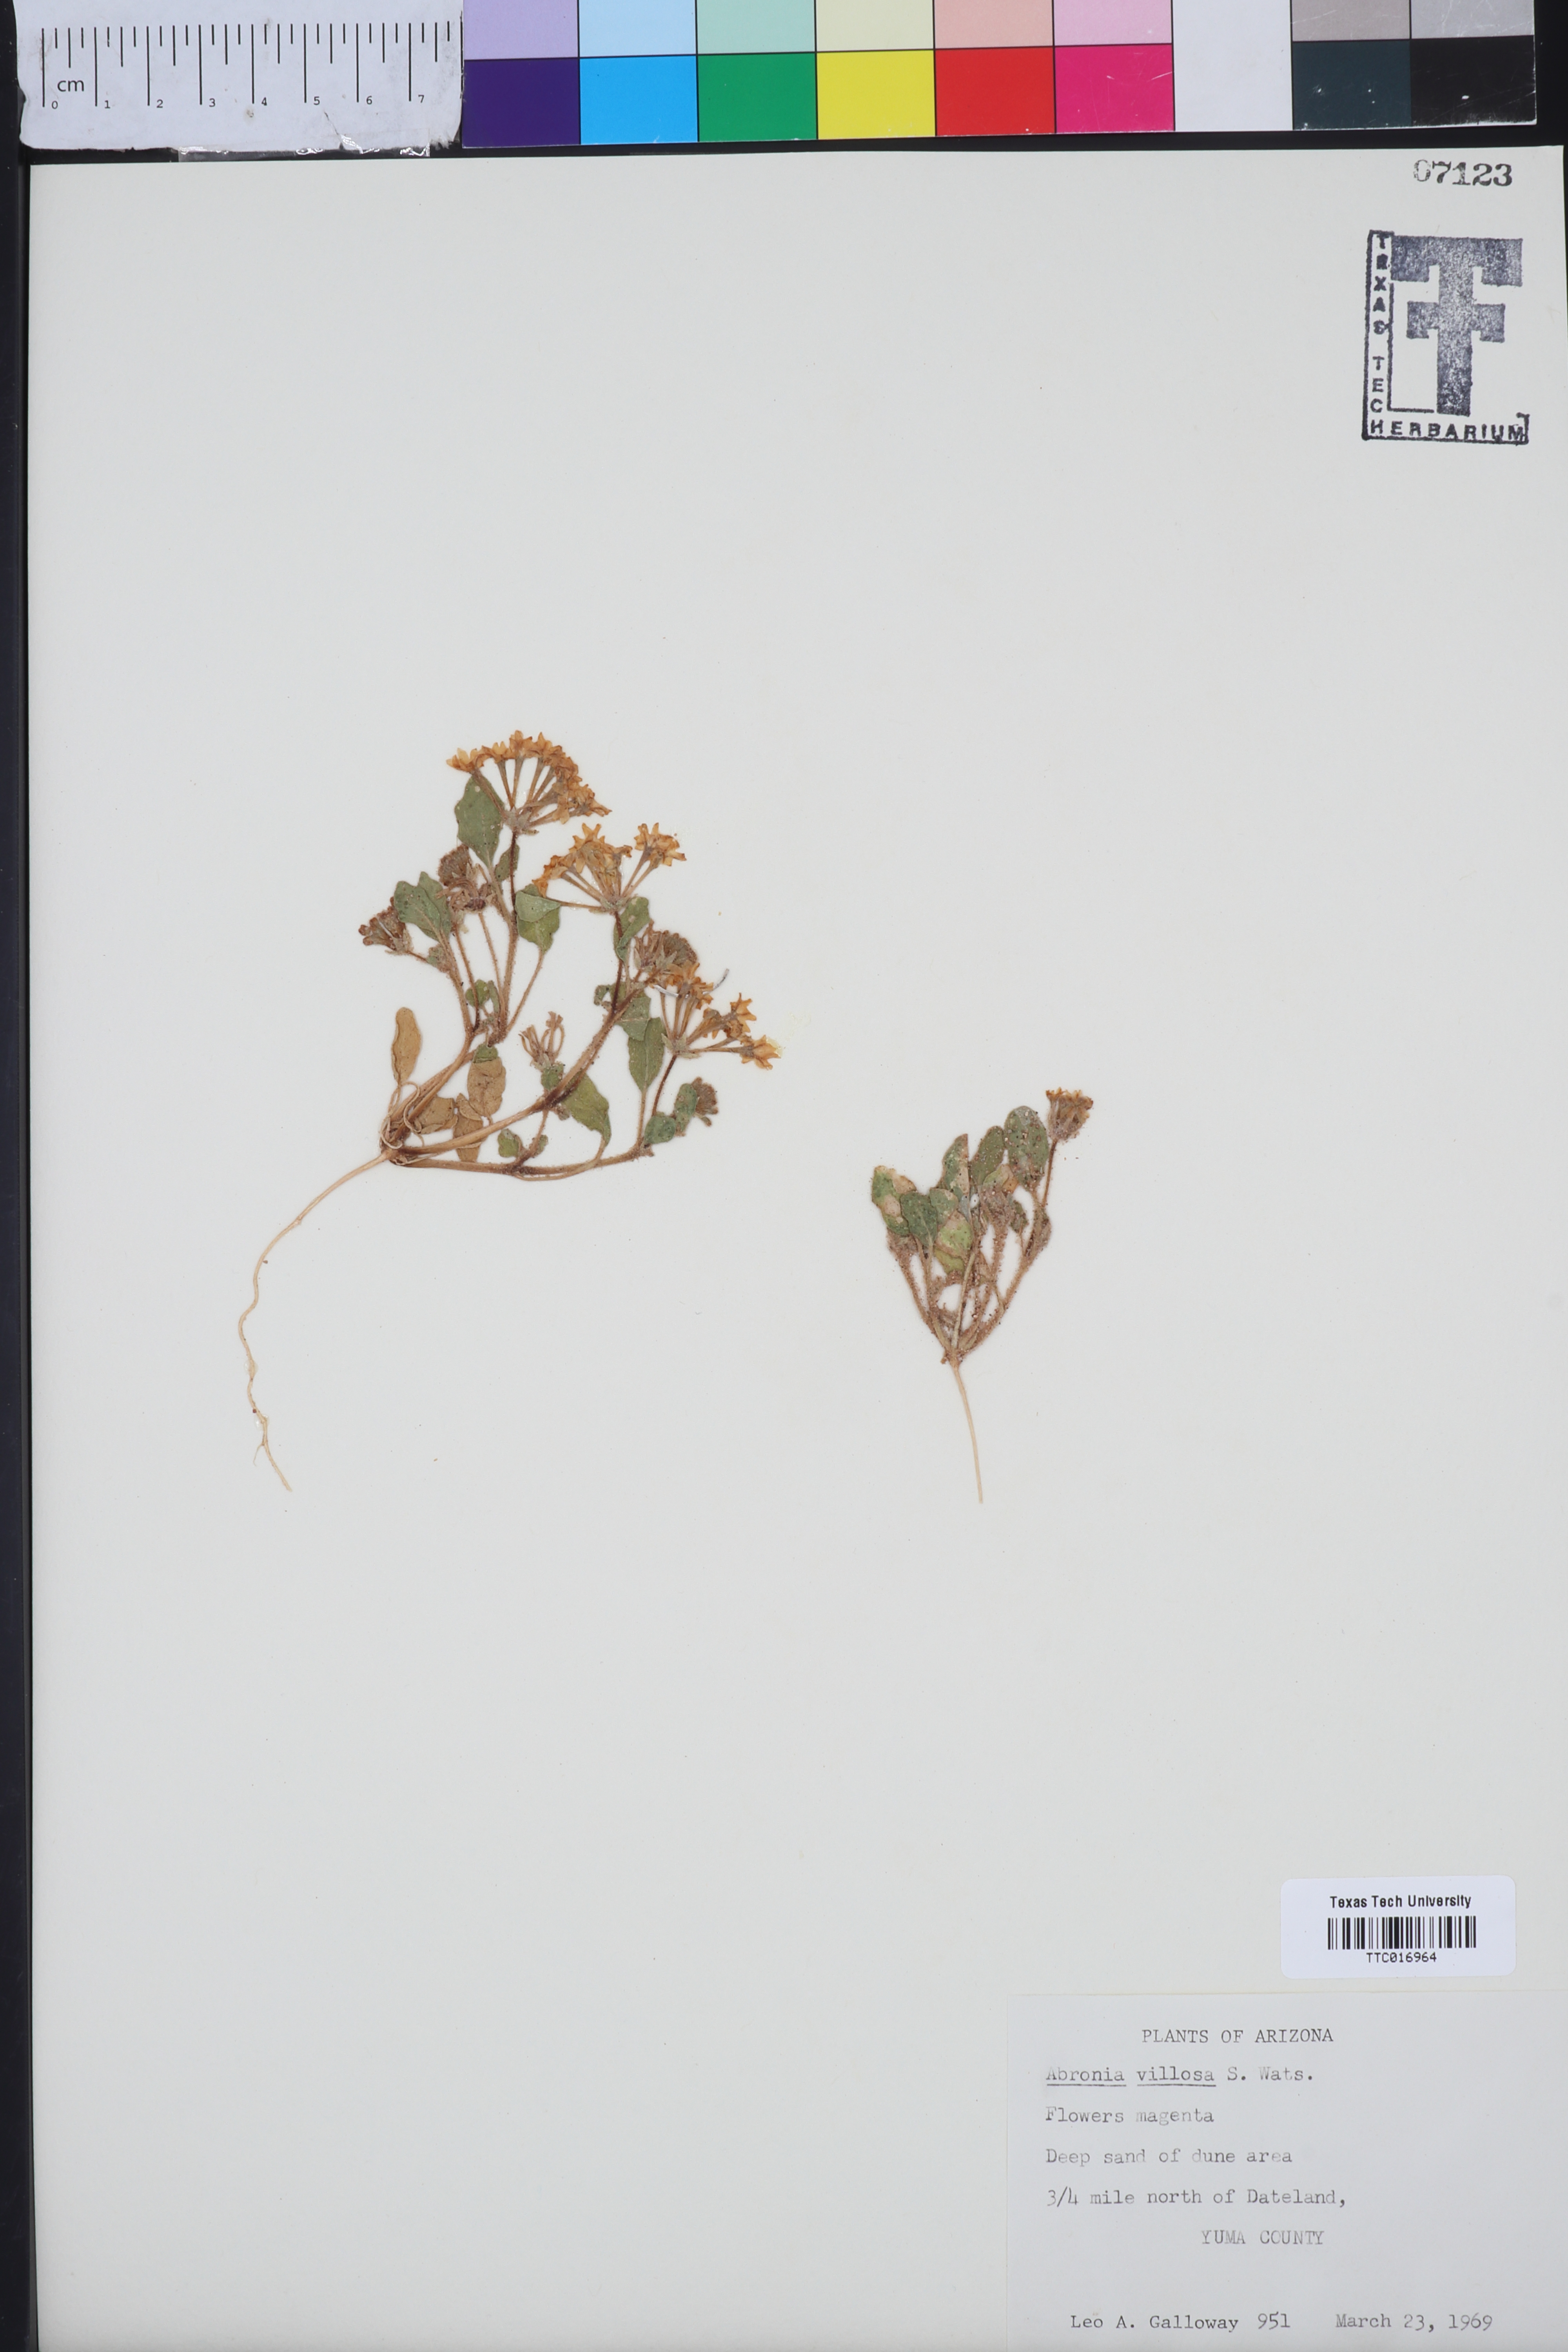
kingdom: Plantae
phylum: Tracheophyta
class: Magnoliopsida
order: Caryophyllales
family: Nyctaginaceae
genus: Abronia
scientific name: Abronia villosa
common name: Desert sand-verbena
